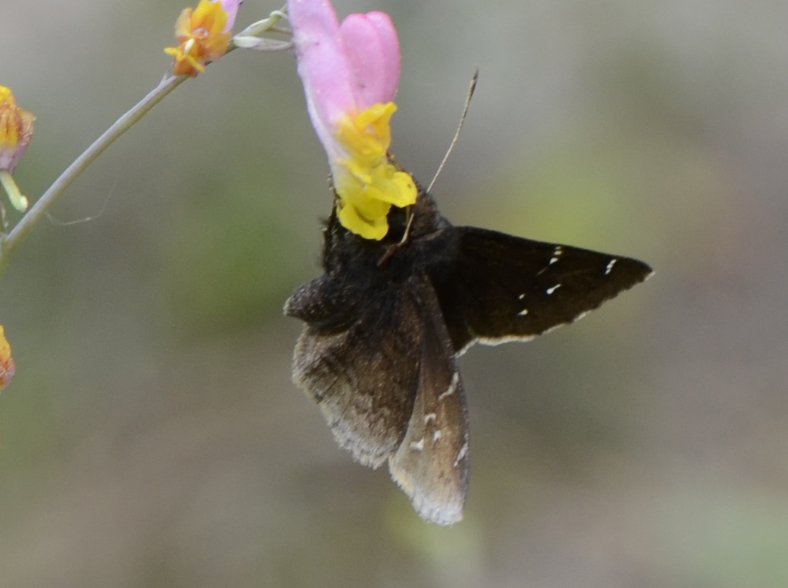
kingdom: Animalia
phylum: Arthropoda
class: Insecta
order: Lepidoptera
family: Hesperiidae
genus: Autochton
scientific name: Autochton
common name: Northern Cloudywing
